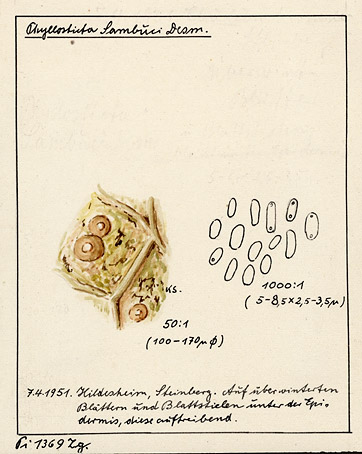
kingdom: Plantae
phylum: Tracheophyta
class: Magnoliopsida
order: Dipsacales
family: Viburnaceae
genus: Sambucus
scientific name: Sambucus
